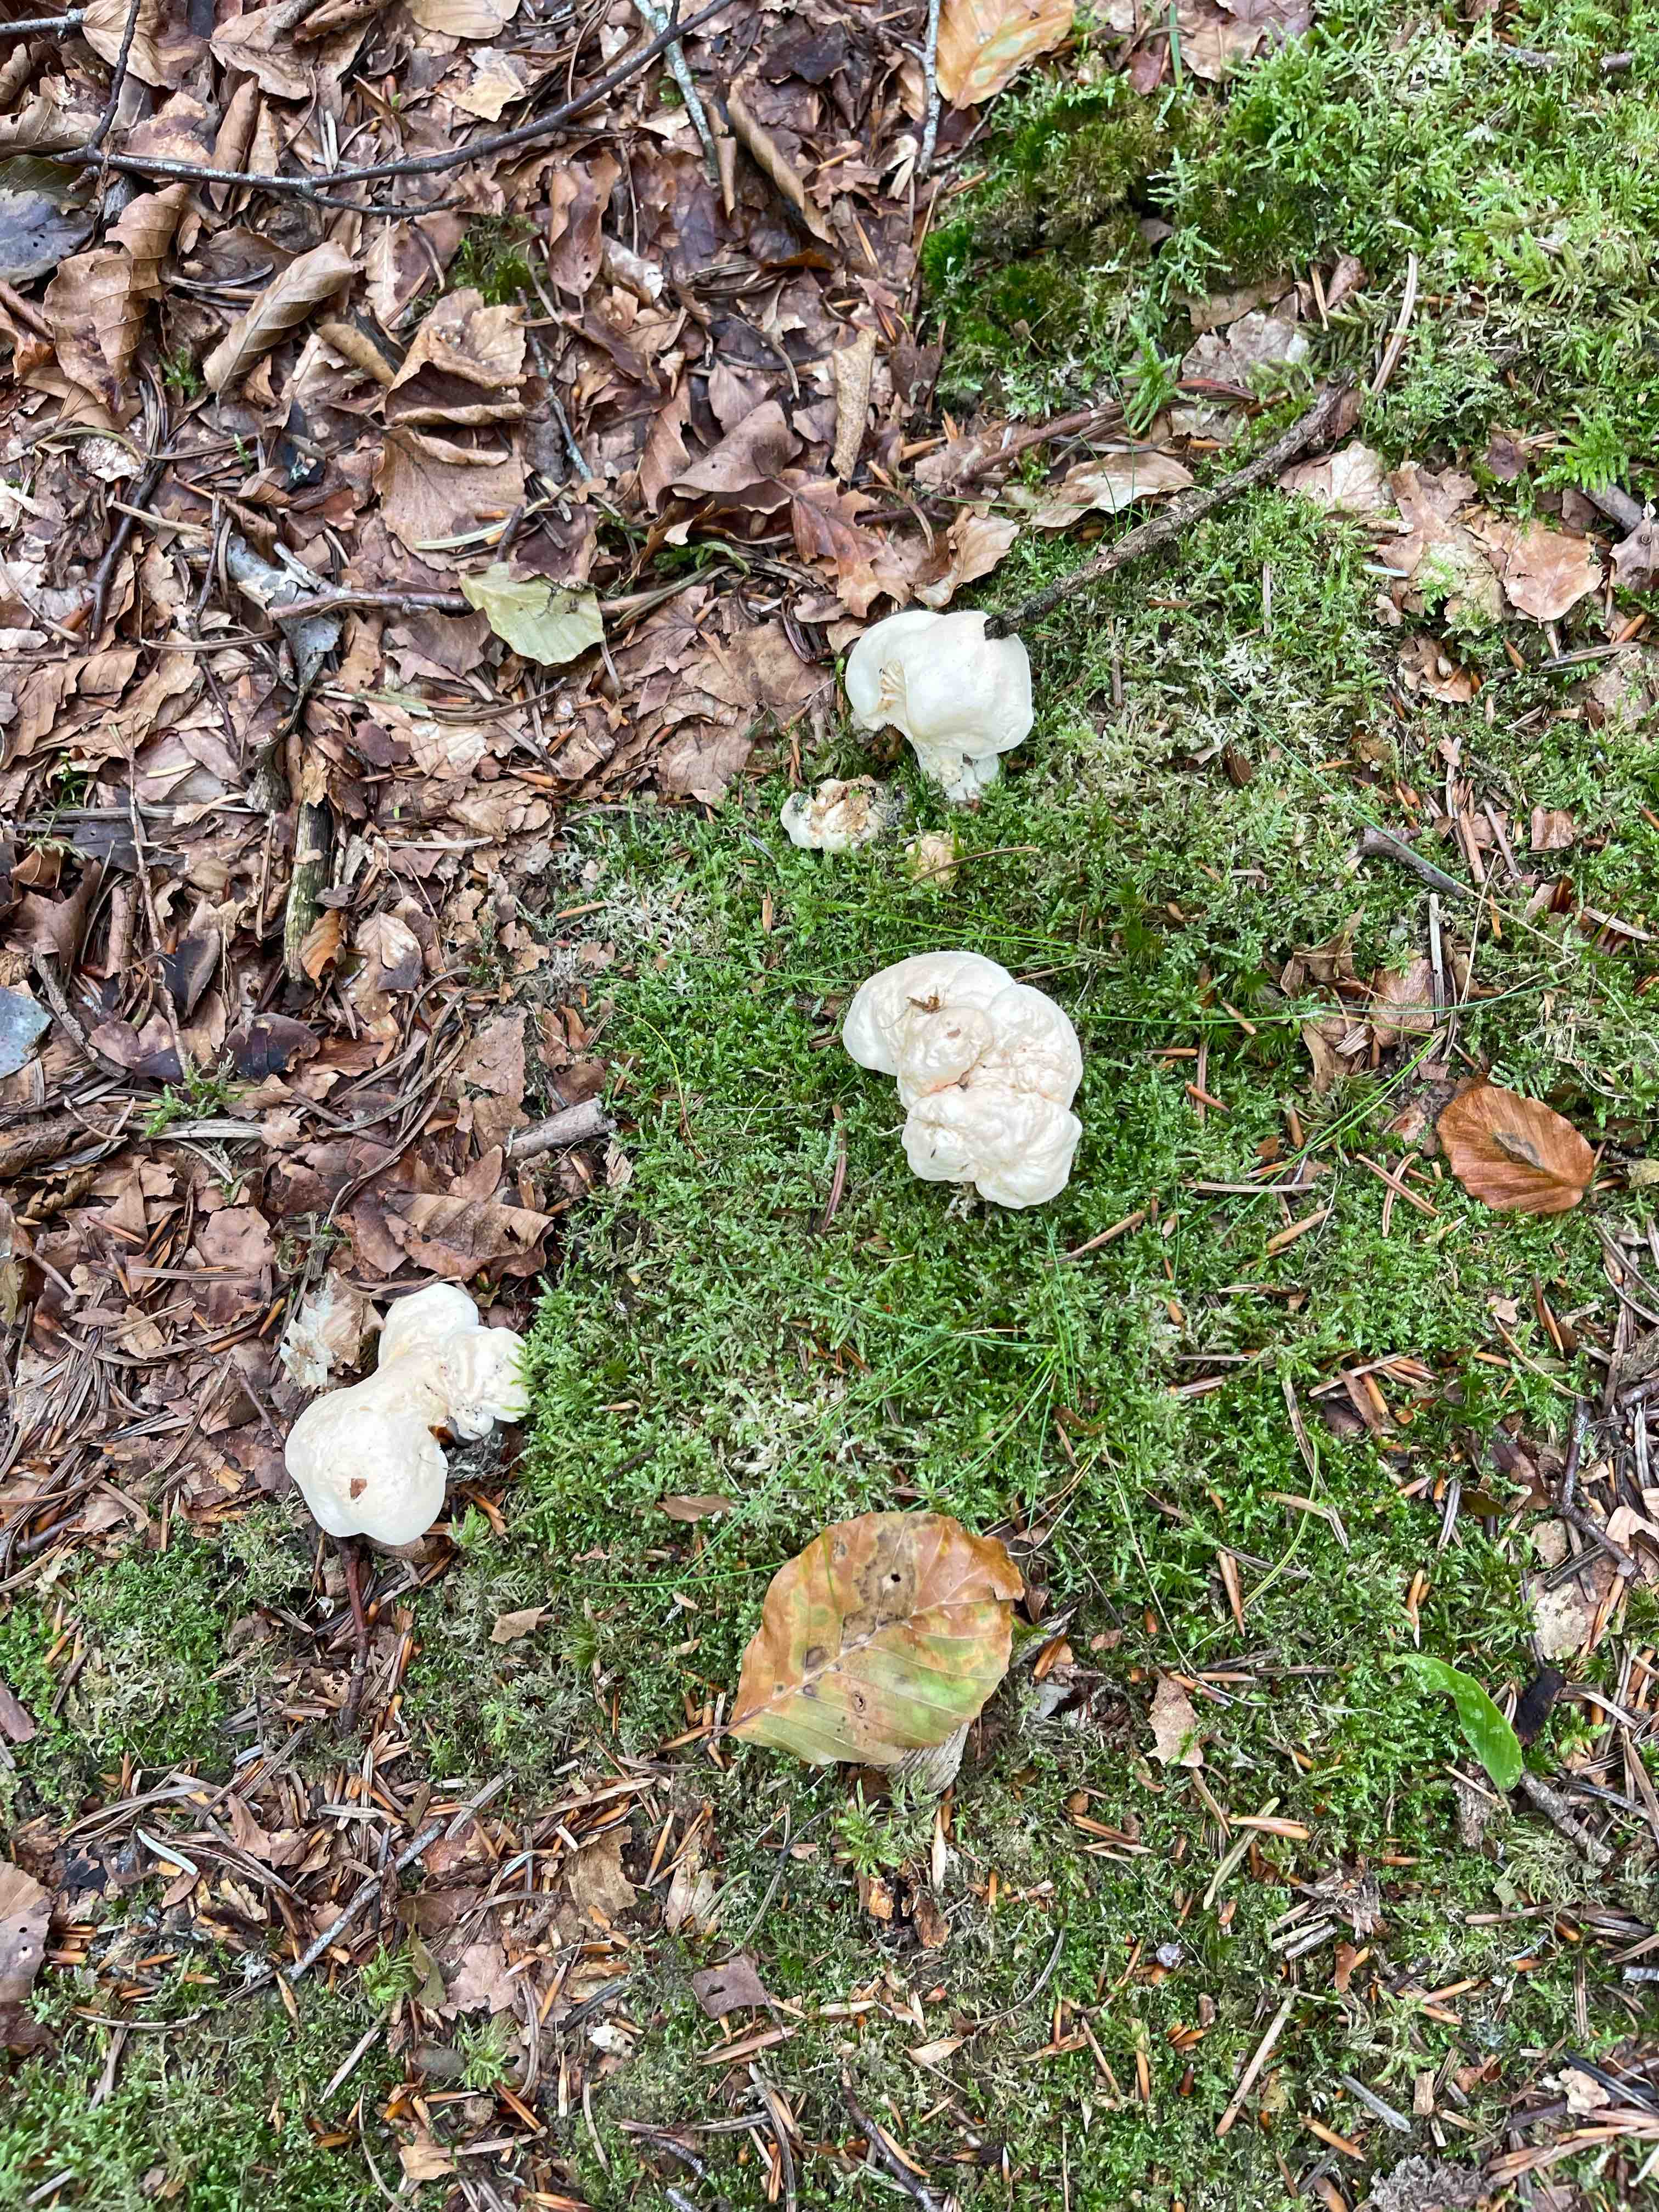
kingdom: Fungi
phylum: Basidiomycota
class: Agaricomycetes
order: Cantharellales
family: Hydnaceae
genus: Hydnum
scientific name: Hydnum repandum
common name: almindelig pigsvamp
